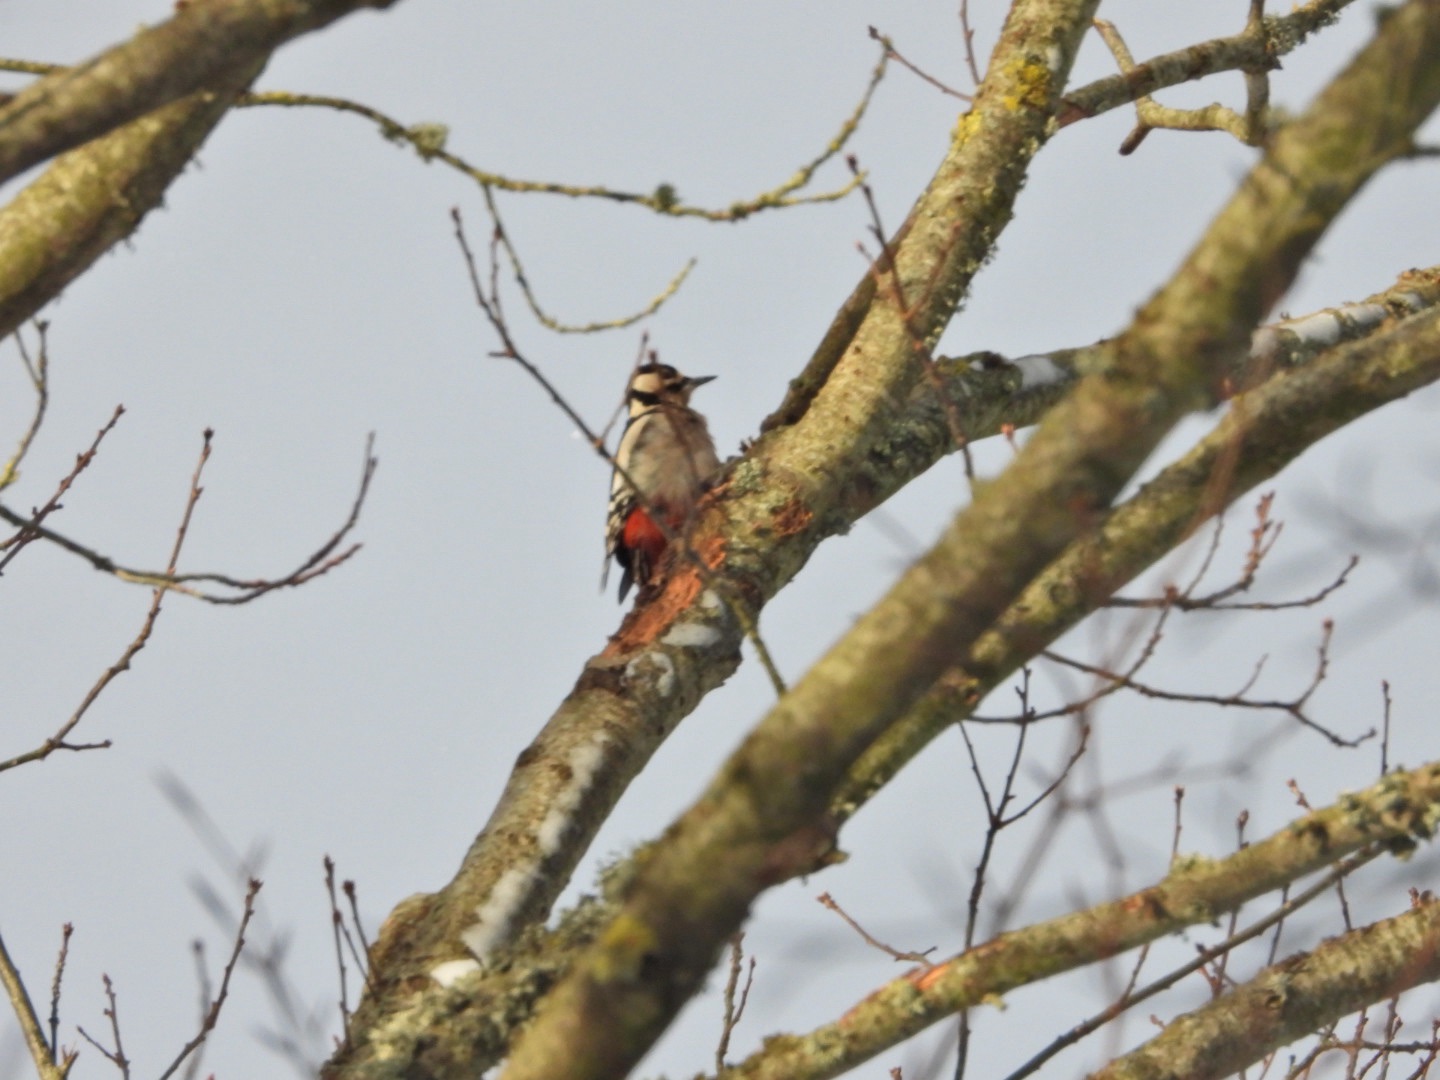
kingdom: Animalia
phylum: Chordata
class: Aves
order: Piciformes
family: Picidae
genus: Dendrocopos
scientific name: Dendrocopos major
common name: Stor flagspætte
